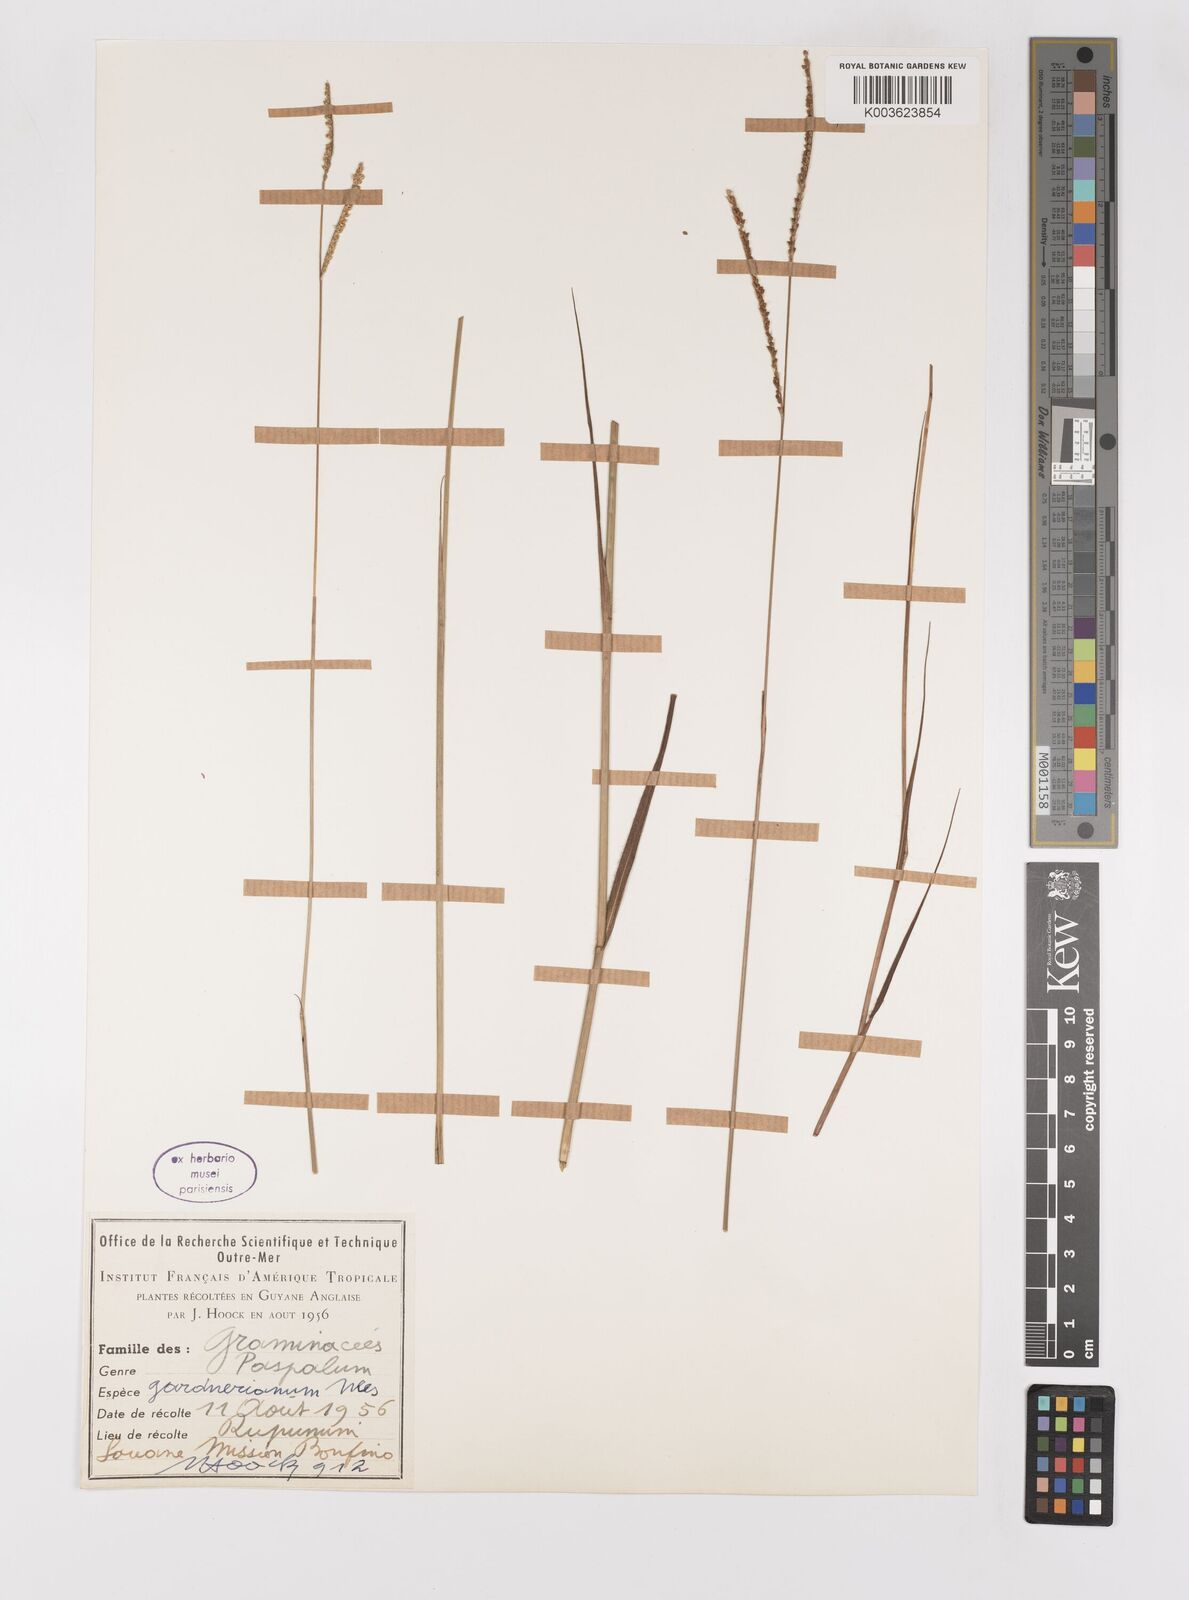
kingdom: Plantae
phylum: Tracheophyta
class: Liliopsida
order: Poales
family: Poaceae
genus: Paspalum
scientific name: Paspalum gardnerianum
